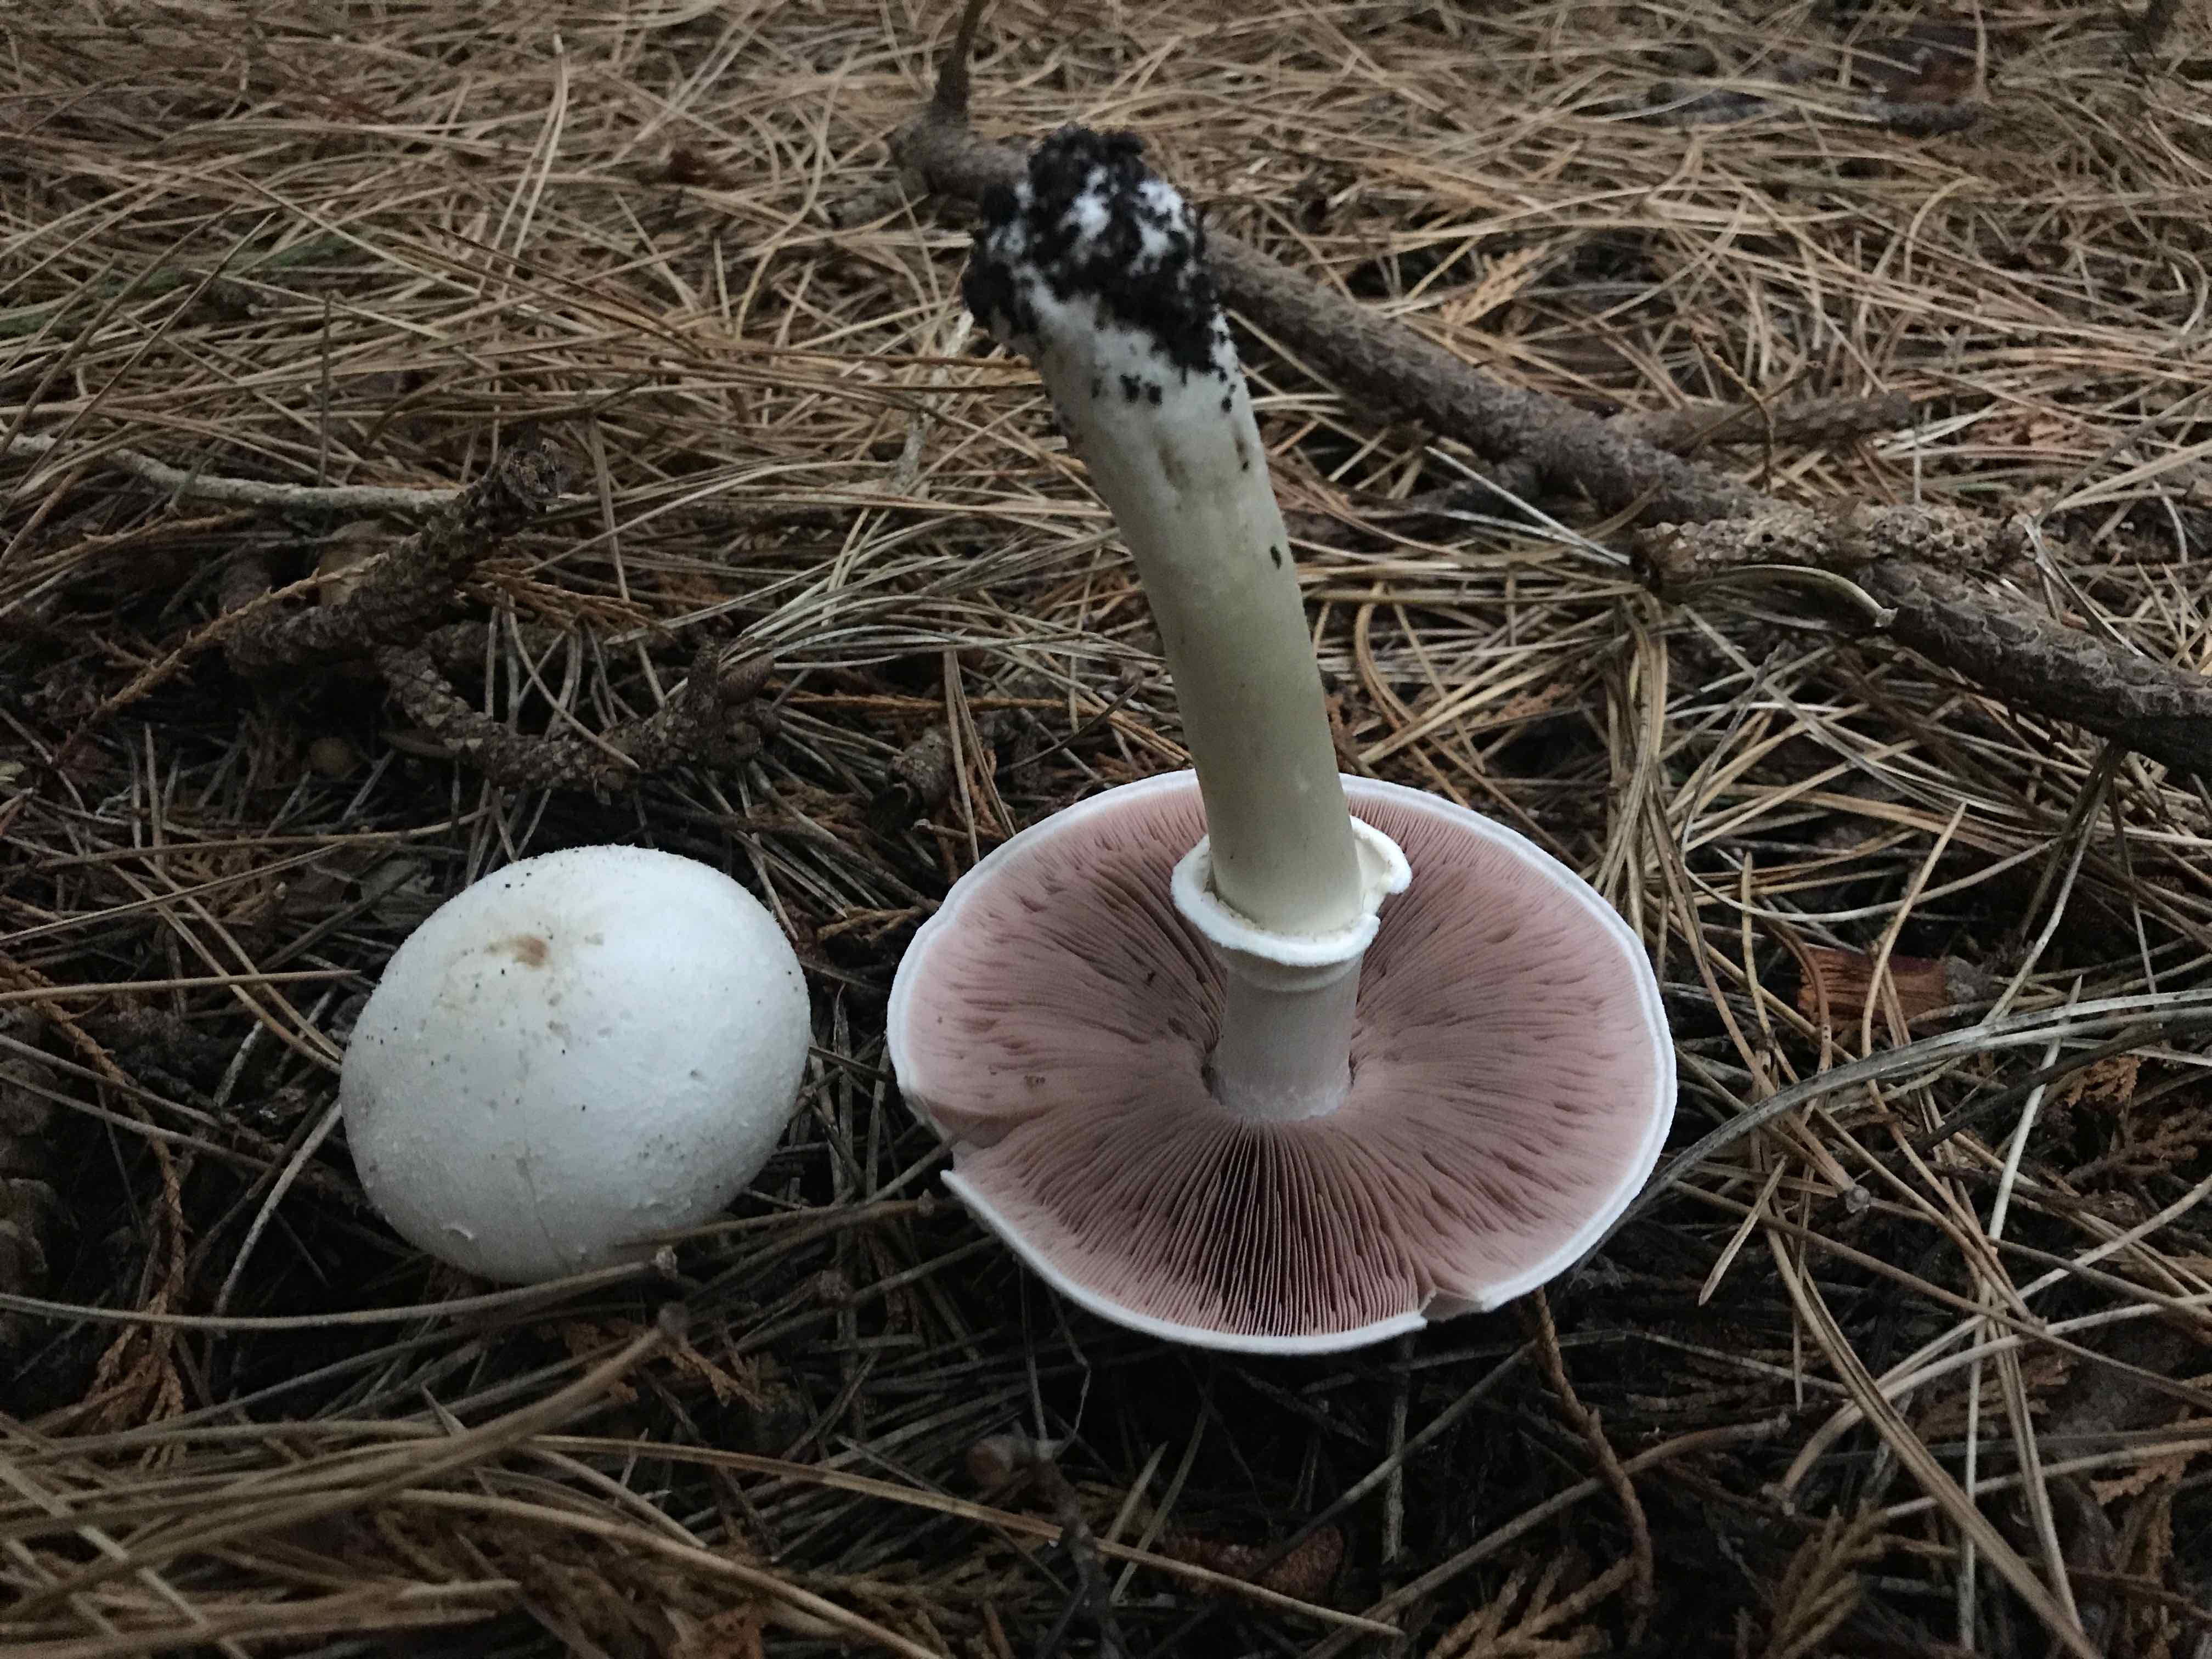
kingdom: Fungi
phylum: Basidiomycota
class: Agaricomycetes
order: Agaricales
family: Agaricaceae
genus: Agaricus
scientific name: Agaricus xanthodermus
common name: karbol-champignon
